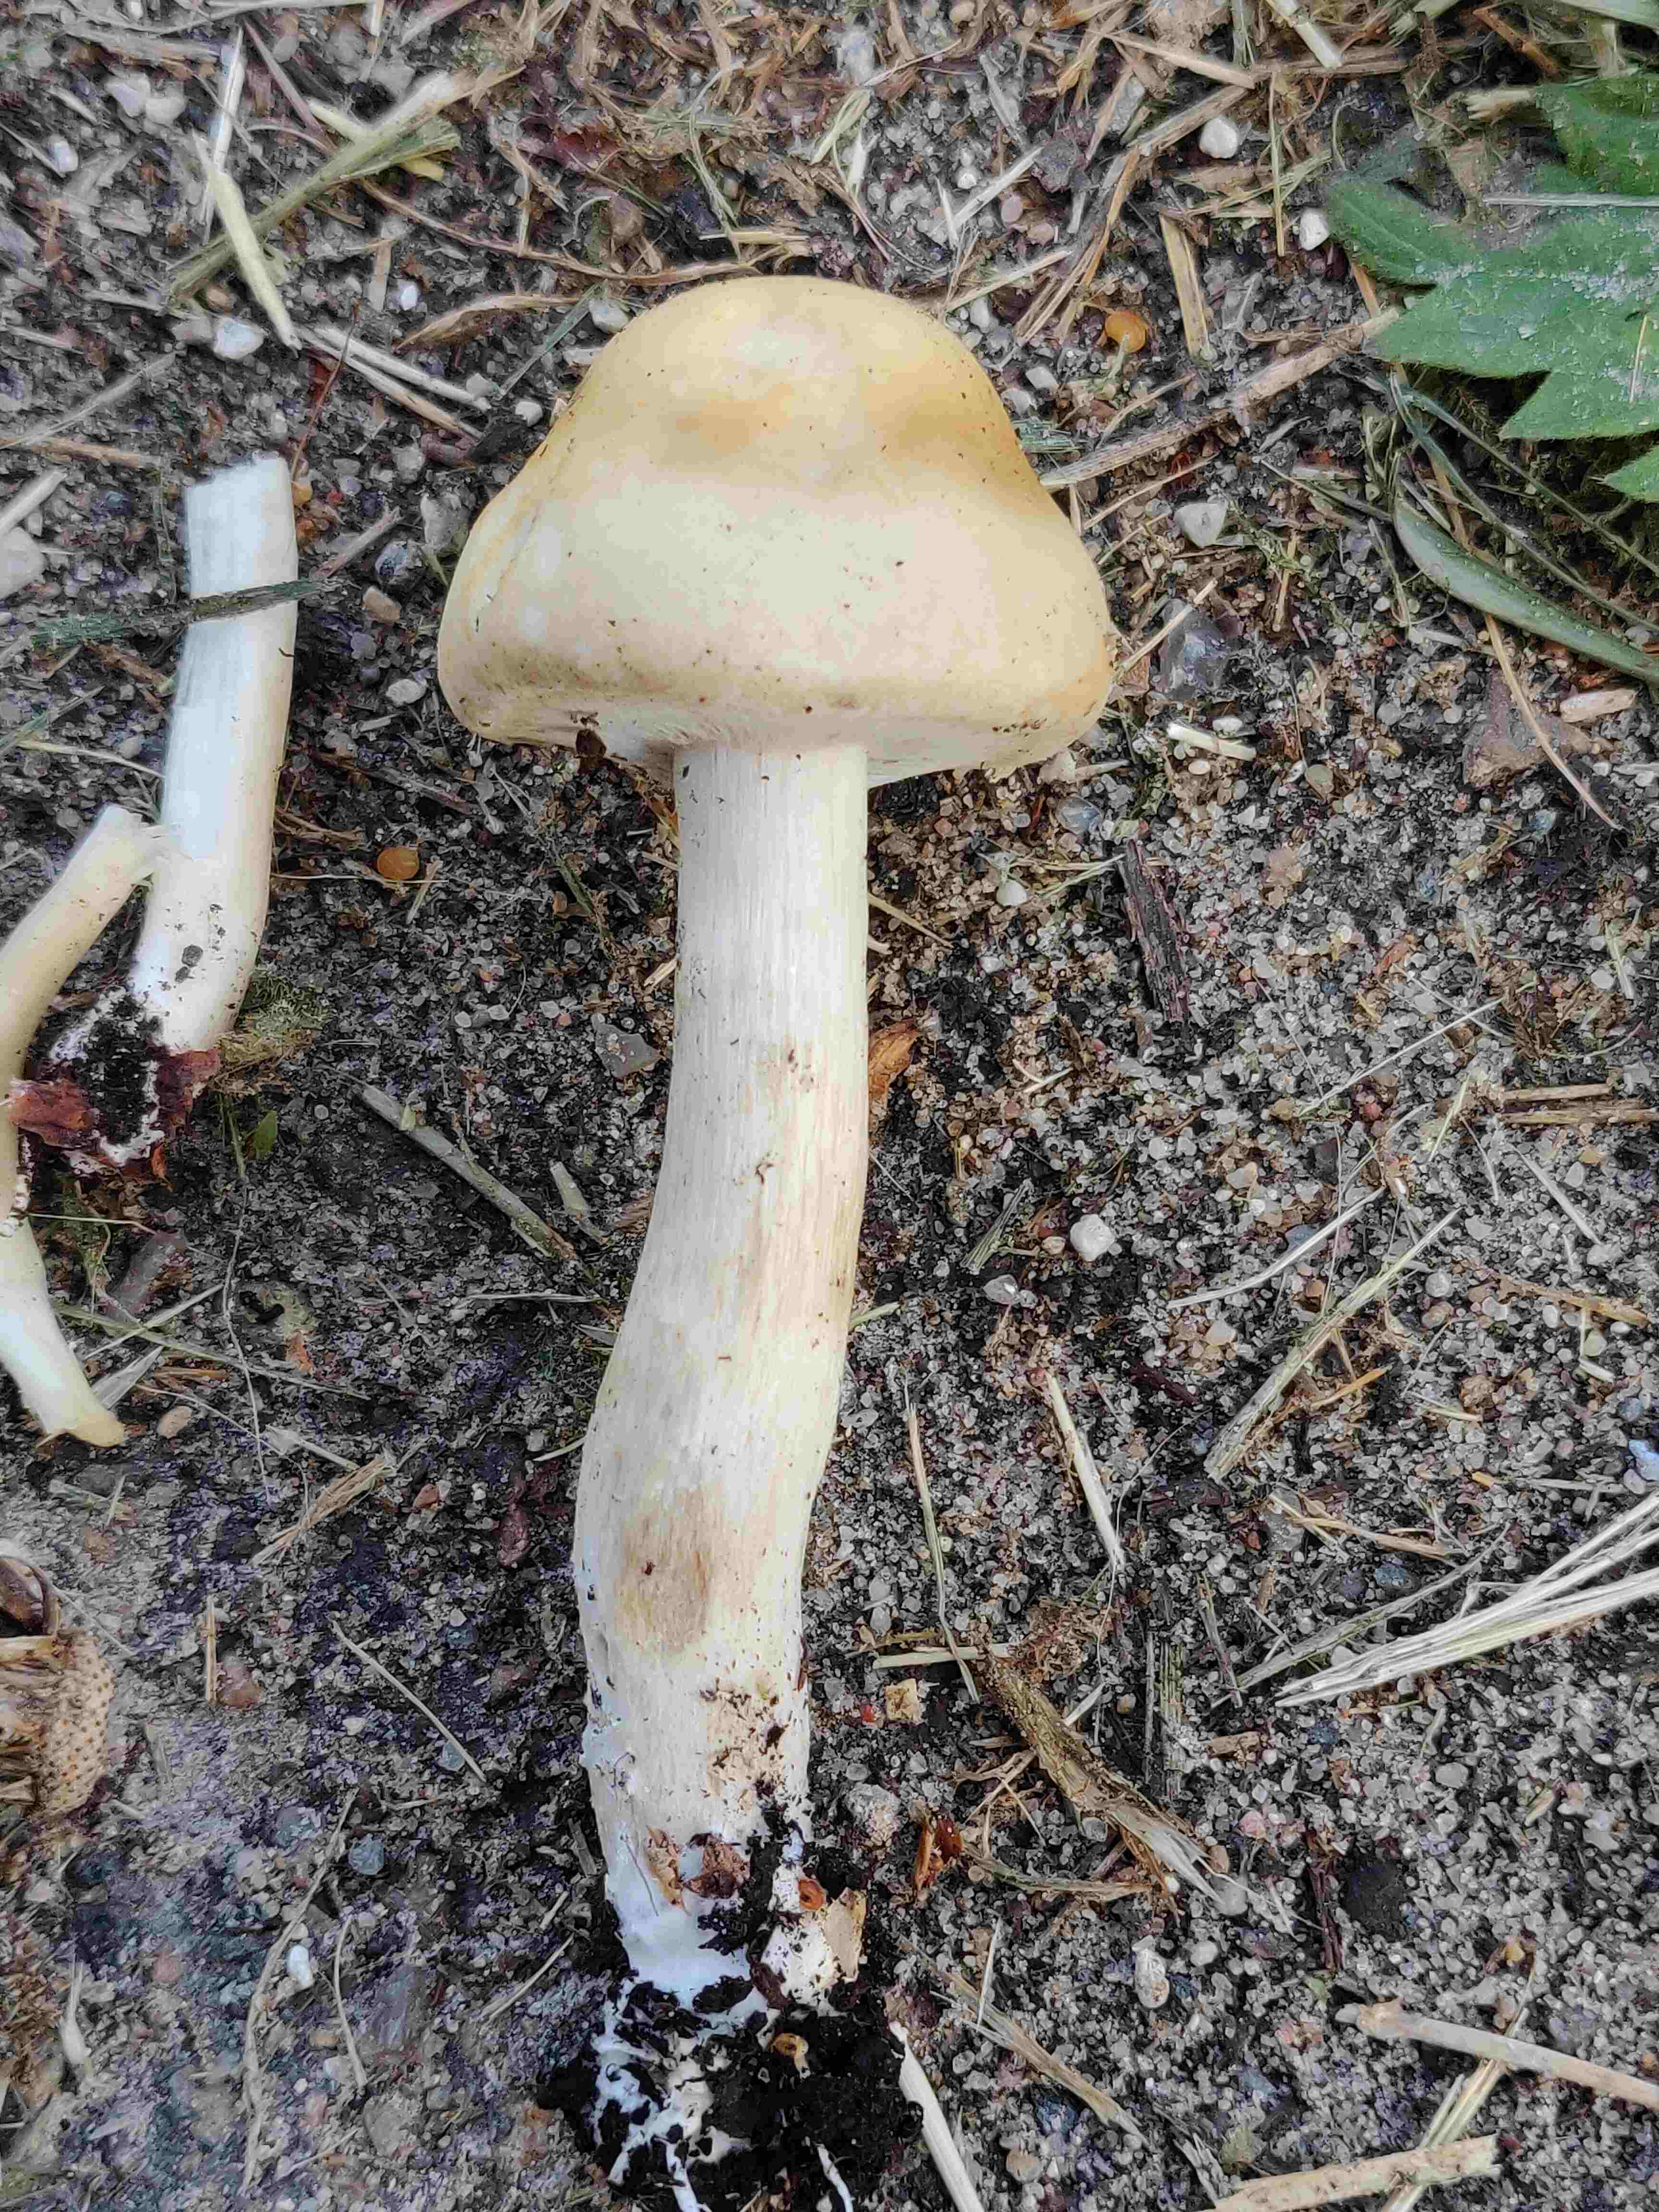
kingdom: Fungi
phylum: Basidiomycota
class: Agaricomycetes
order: Agaricales
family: Strophariaceae
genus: Agrocybe
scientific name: Agrocybe praecox
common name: tidlig agerhat
